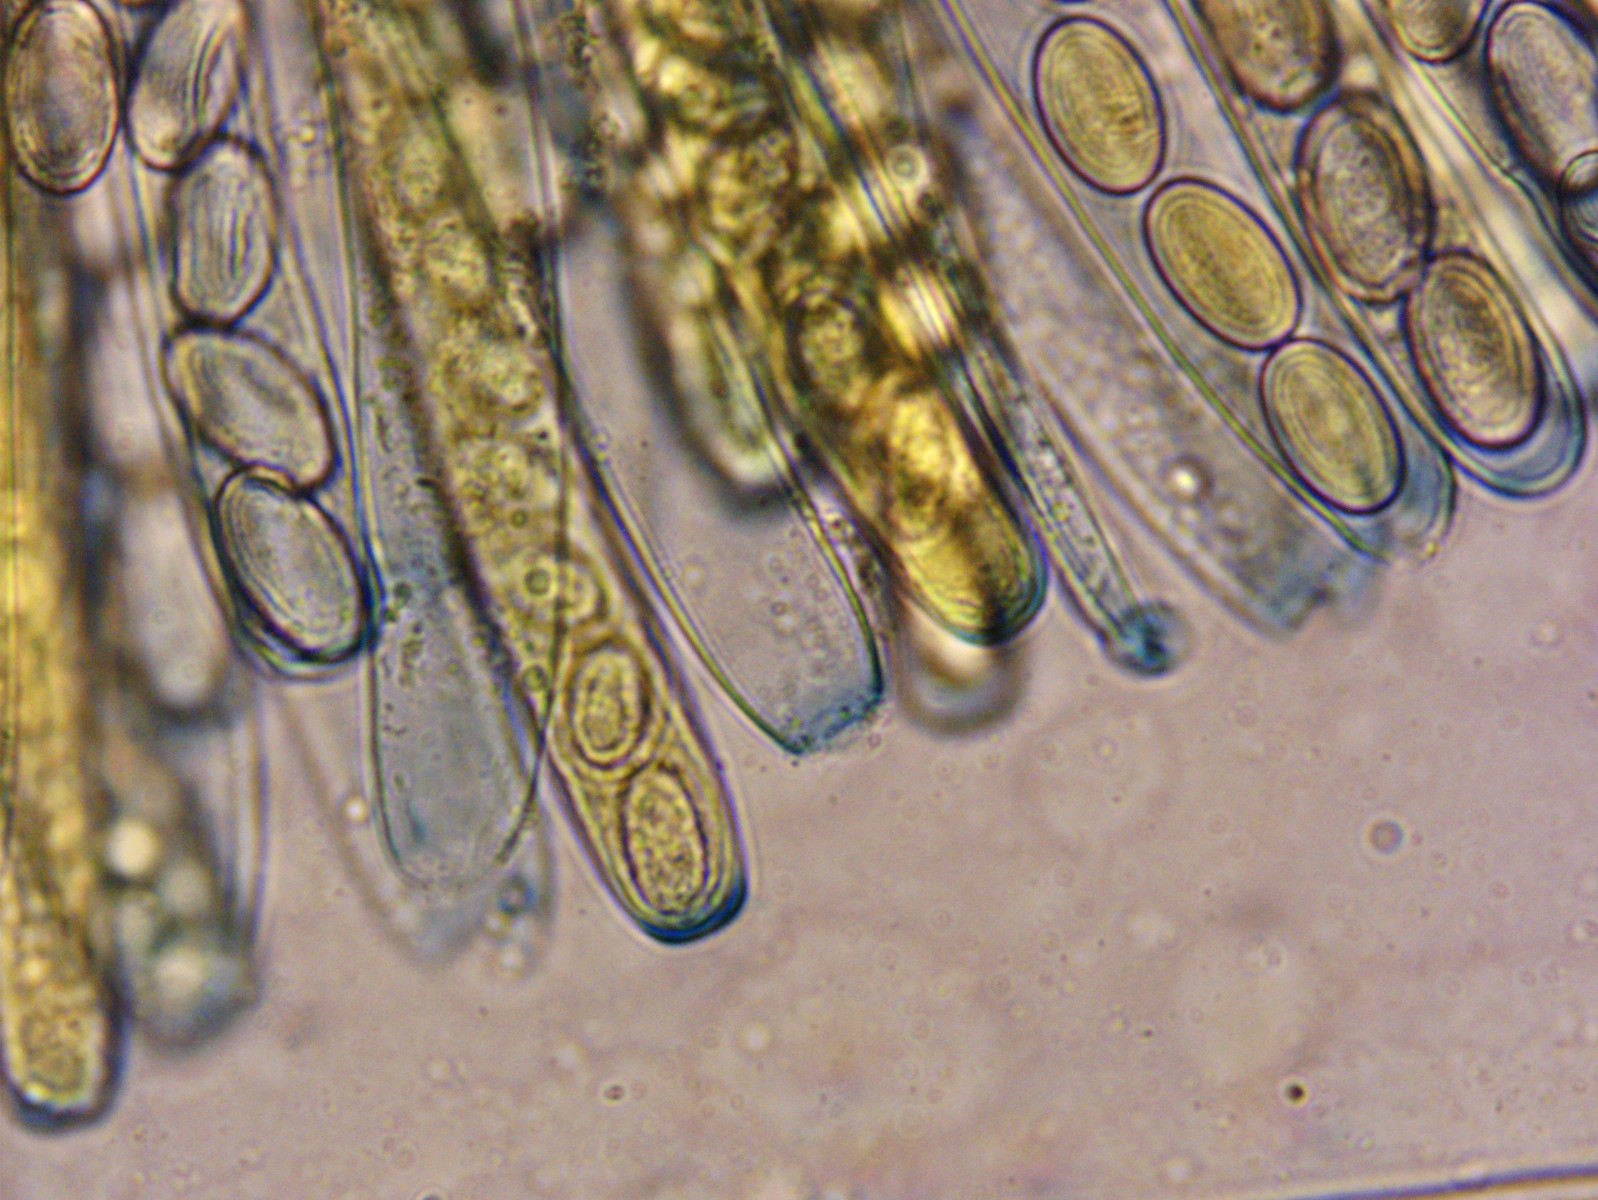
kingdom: Fungi
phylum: Ascomycota
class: Pezizomycetes
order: Pezizales
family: Pezizaceae
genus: Peziza
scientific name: Peziza varia
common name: Ved-bægersvamp
